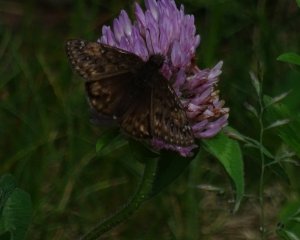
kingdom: Animalia
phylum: Arthropoda
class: Insecta
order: Lepidoptera
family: Hesperiidae
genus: Gesta
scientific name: Gesta
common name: Juvenal's Duskywing
